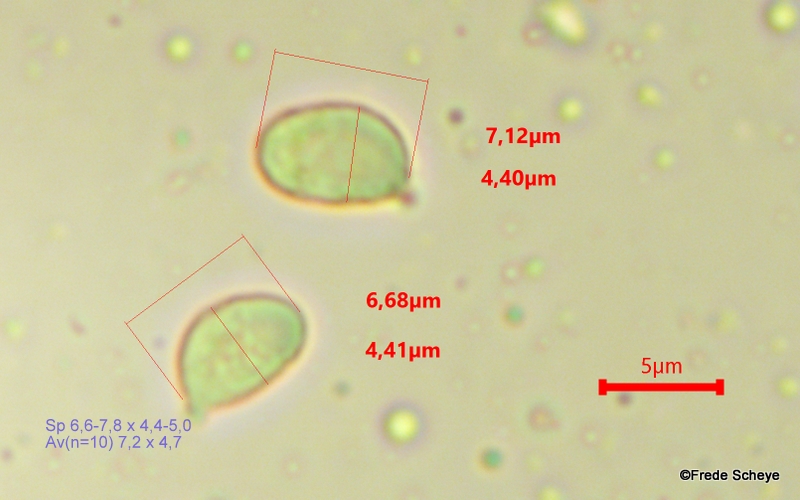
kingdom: Fungi
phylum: Basidiomycota
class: Agaricomycetes
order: Agaricales
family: Hygrophoraceae
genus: Cuphophyllus
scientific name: Cuphophyllus virgineus
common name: snehvid vokshat
